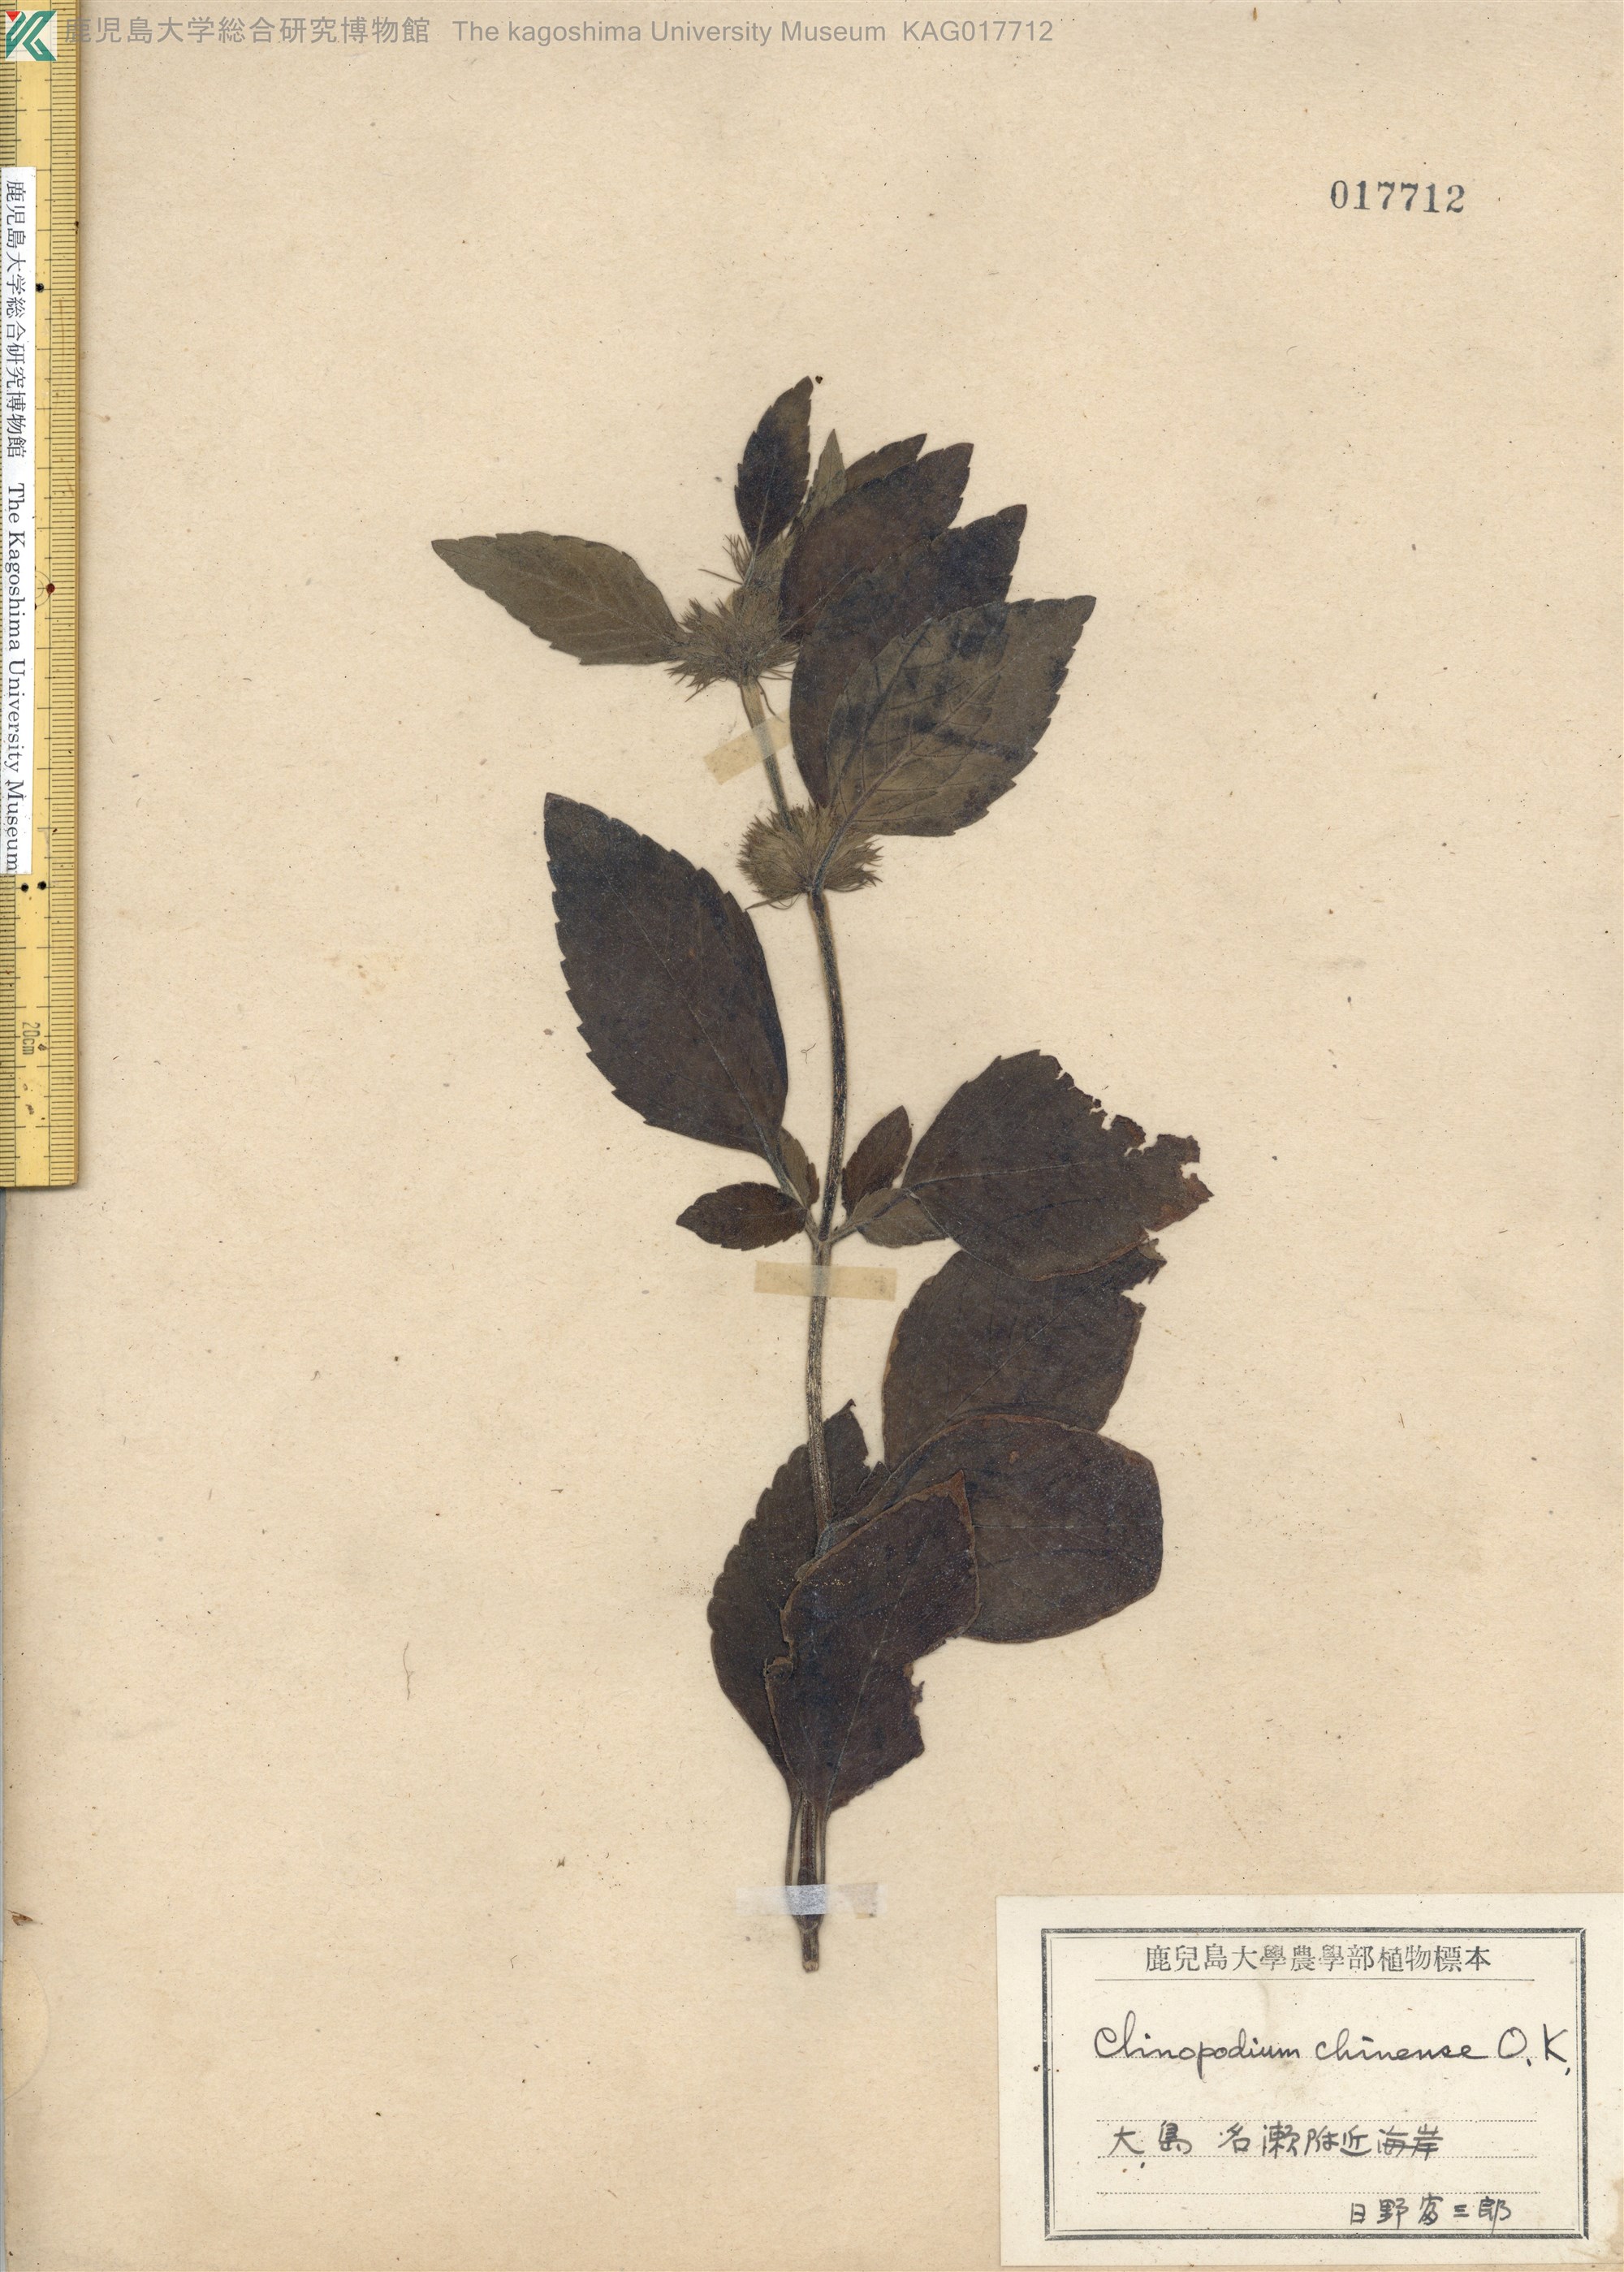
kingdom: Plantae
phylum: Tracheophyta
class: Magnoliopsida
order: Lamiales
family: Lamiaceae
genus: Clinopodium
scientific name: Clinopodium chinense
